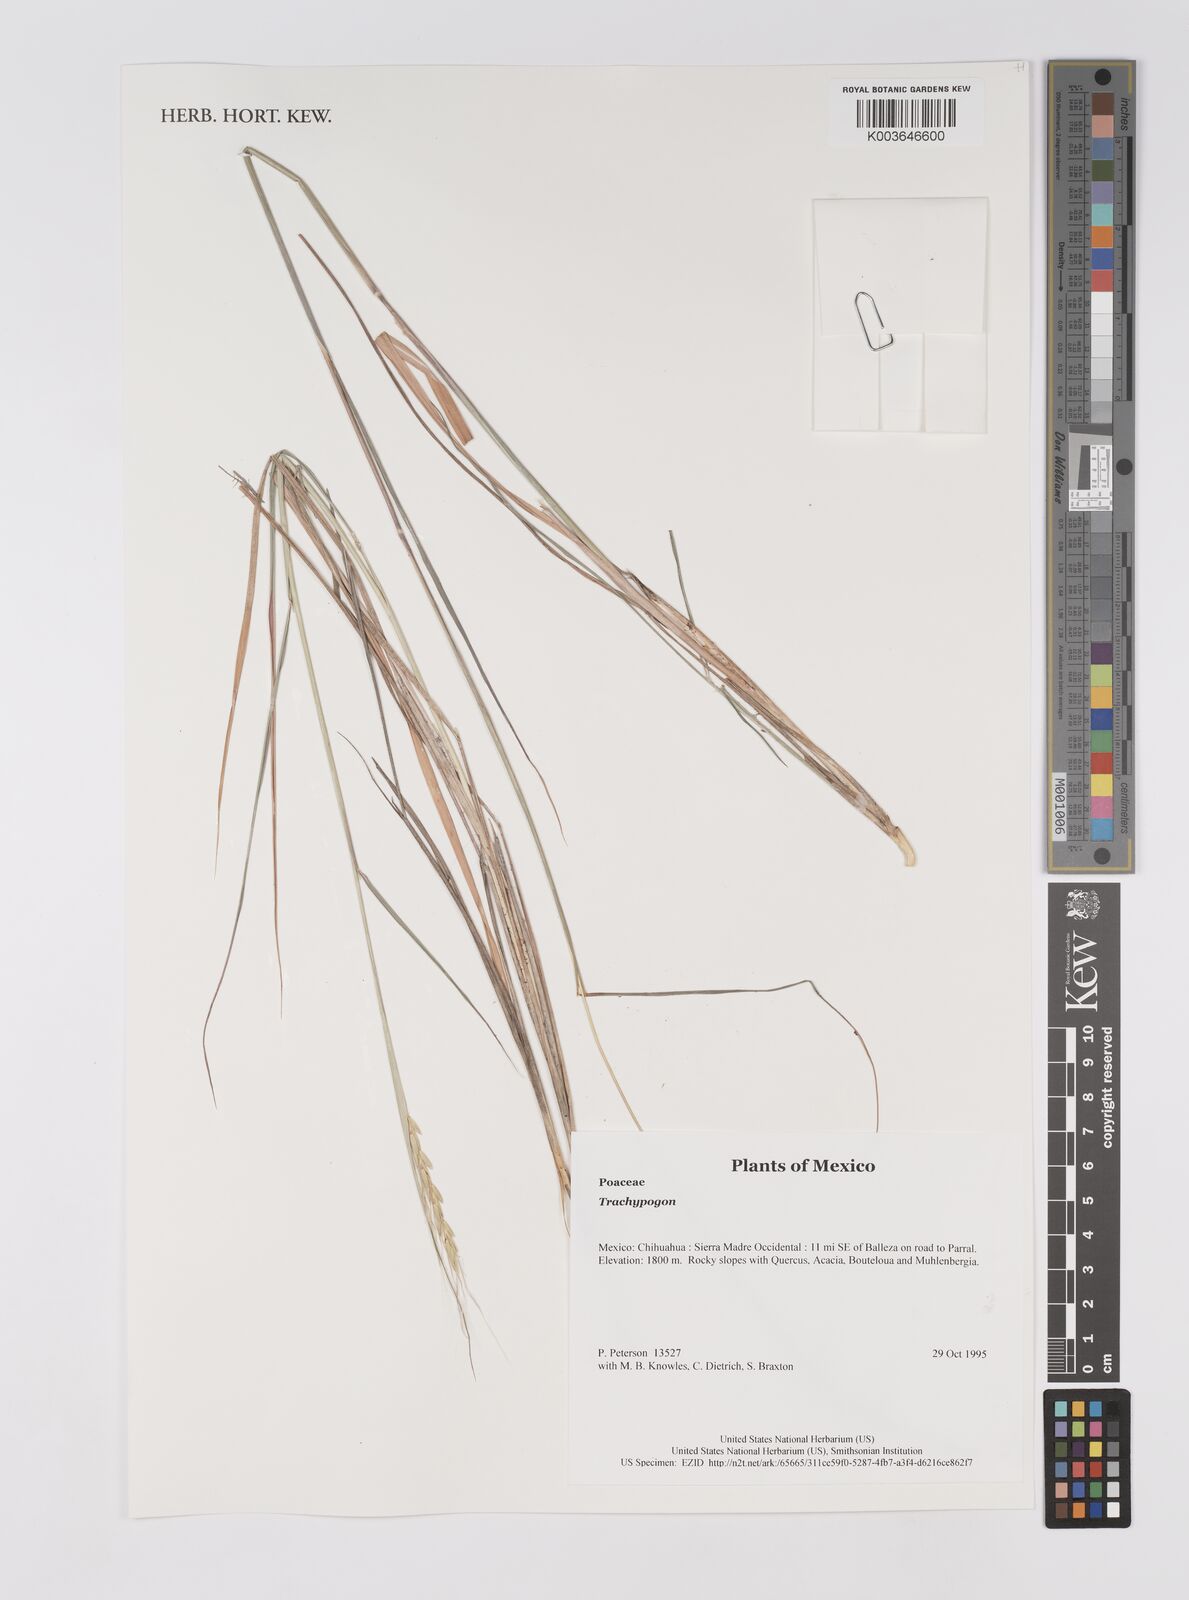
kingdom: Plantae
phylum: Tracheophyta
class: Liliopsida
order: Poales
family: Poaceae
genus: Trachypogon
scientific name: Trachypogon
